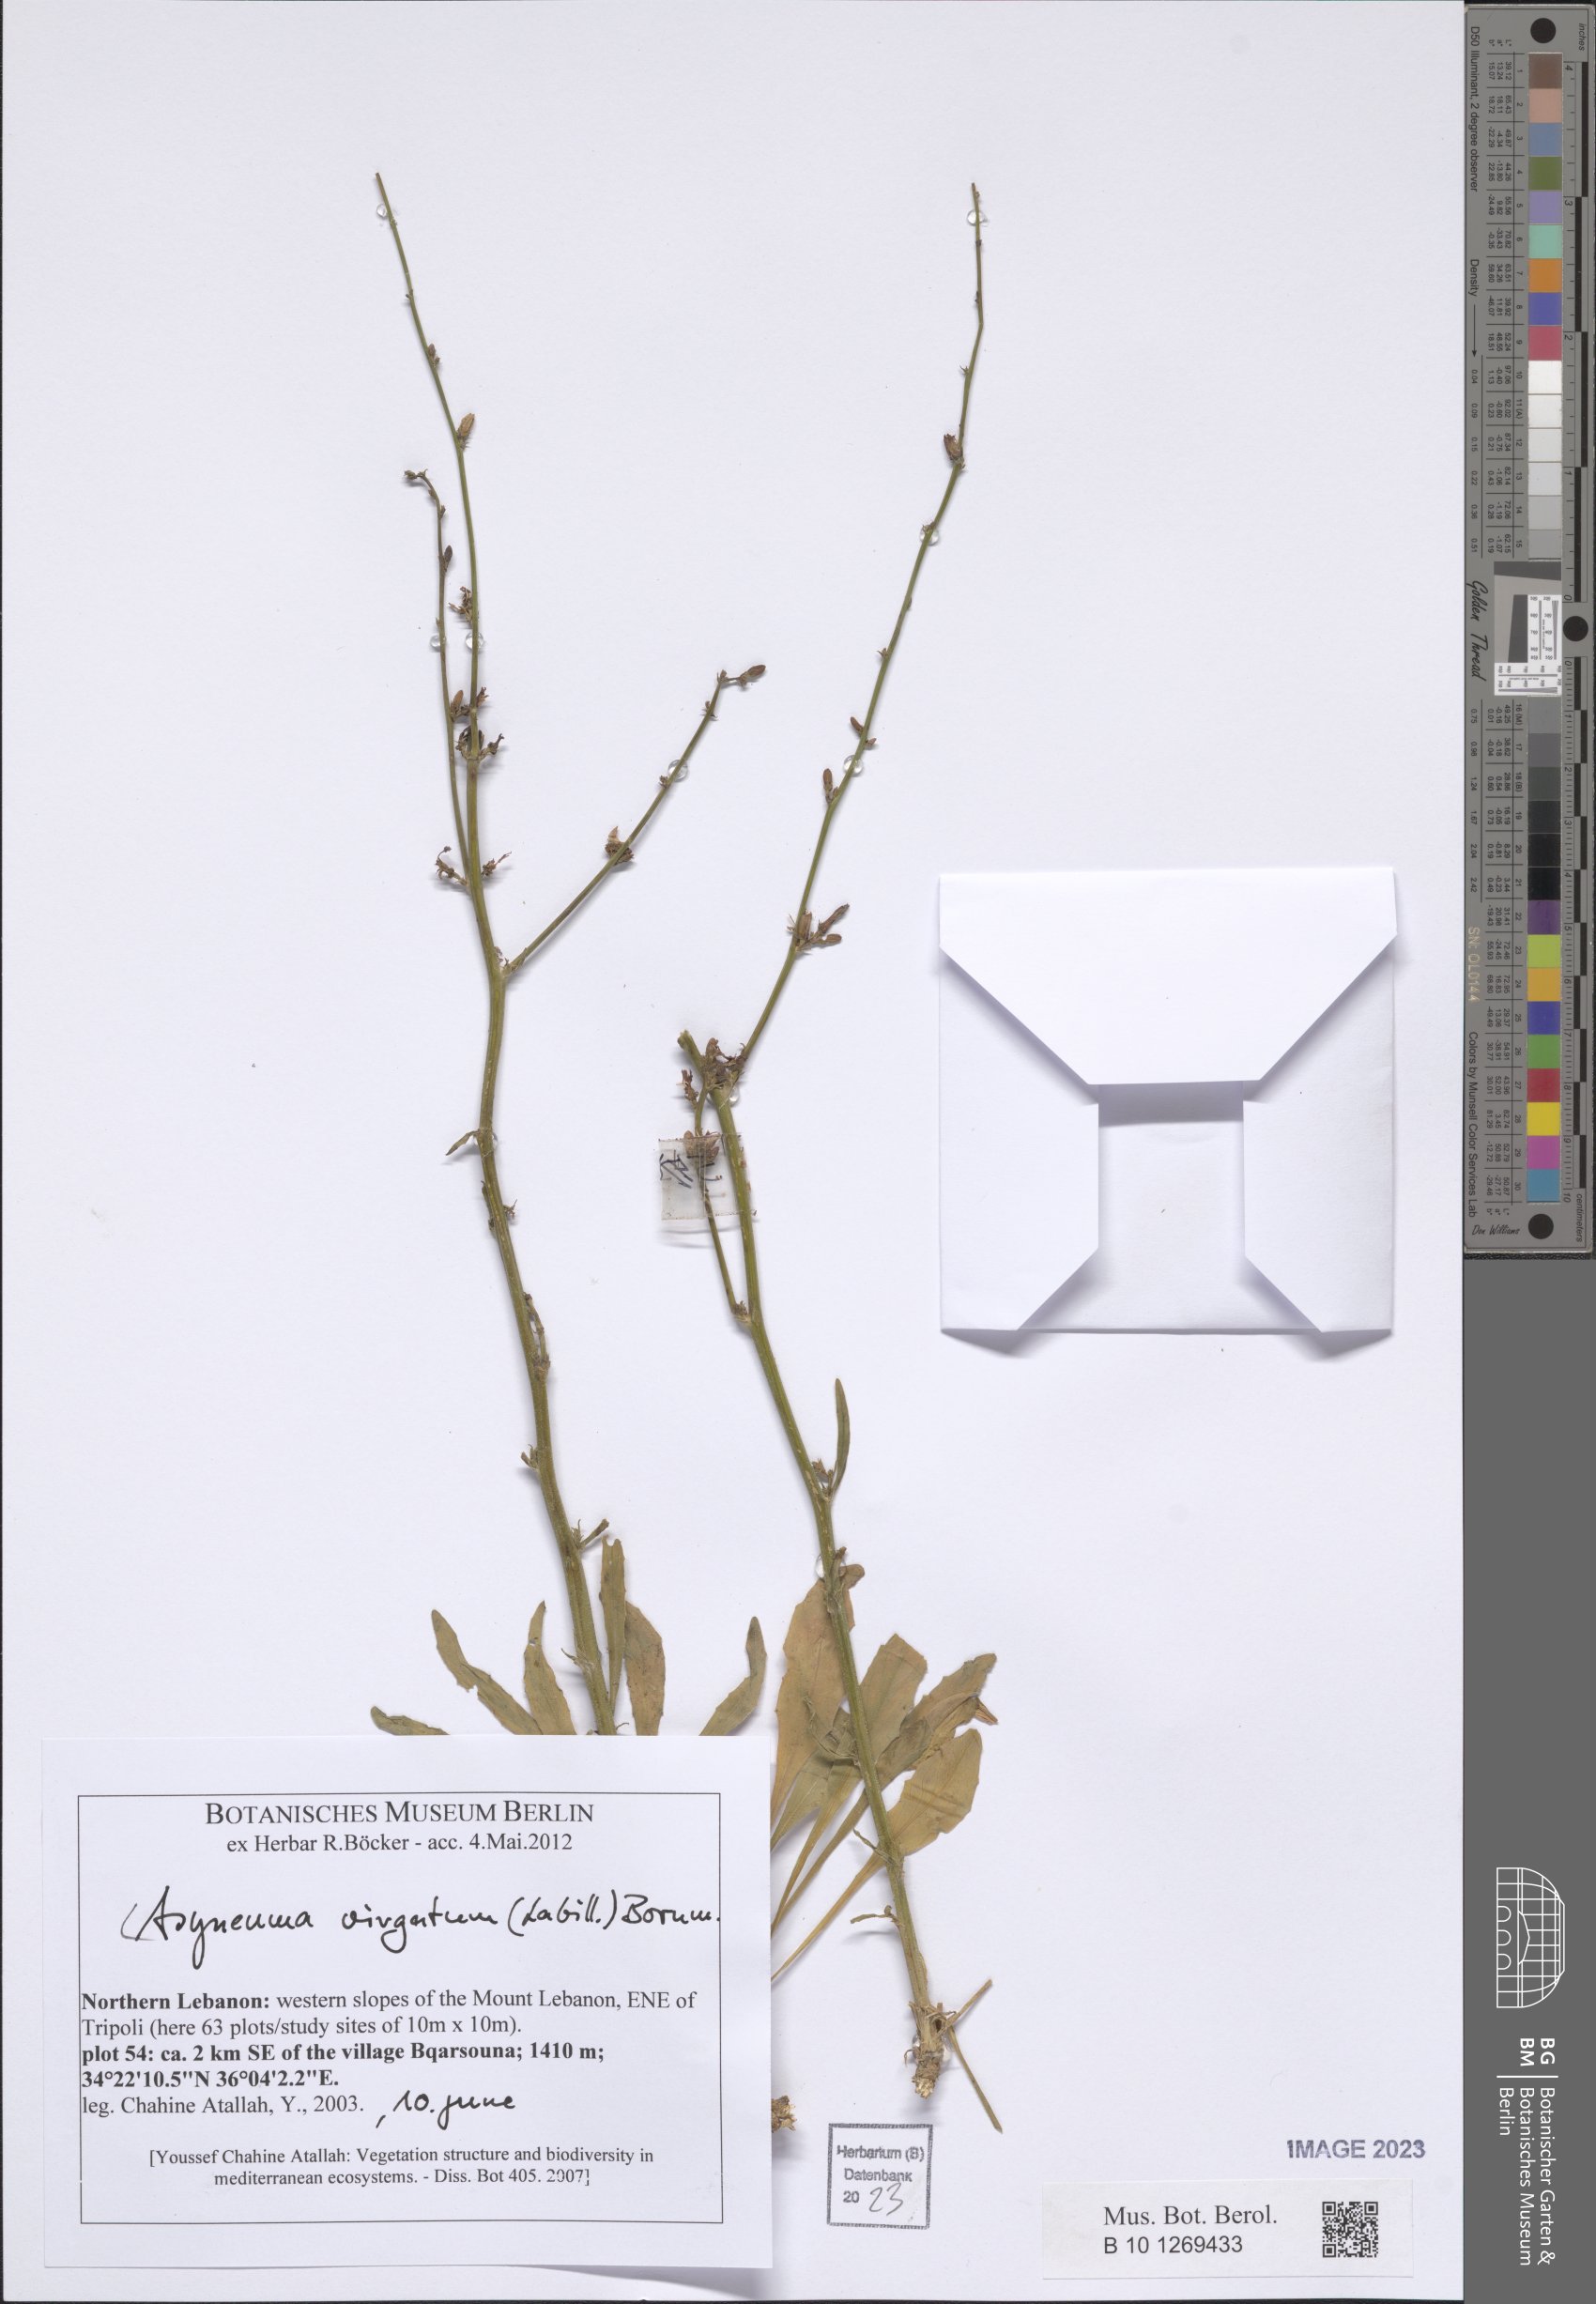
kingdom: Plantae
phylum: Tracheophyta
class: Magnoliopsida
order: Asterales
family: Campanulaceae
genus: Asyneuma
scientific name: Asyneuma virgatum
